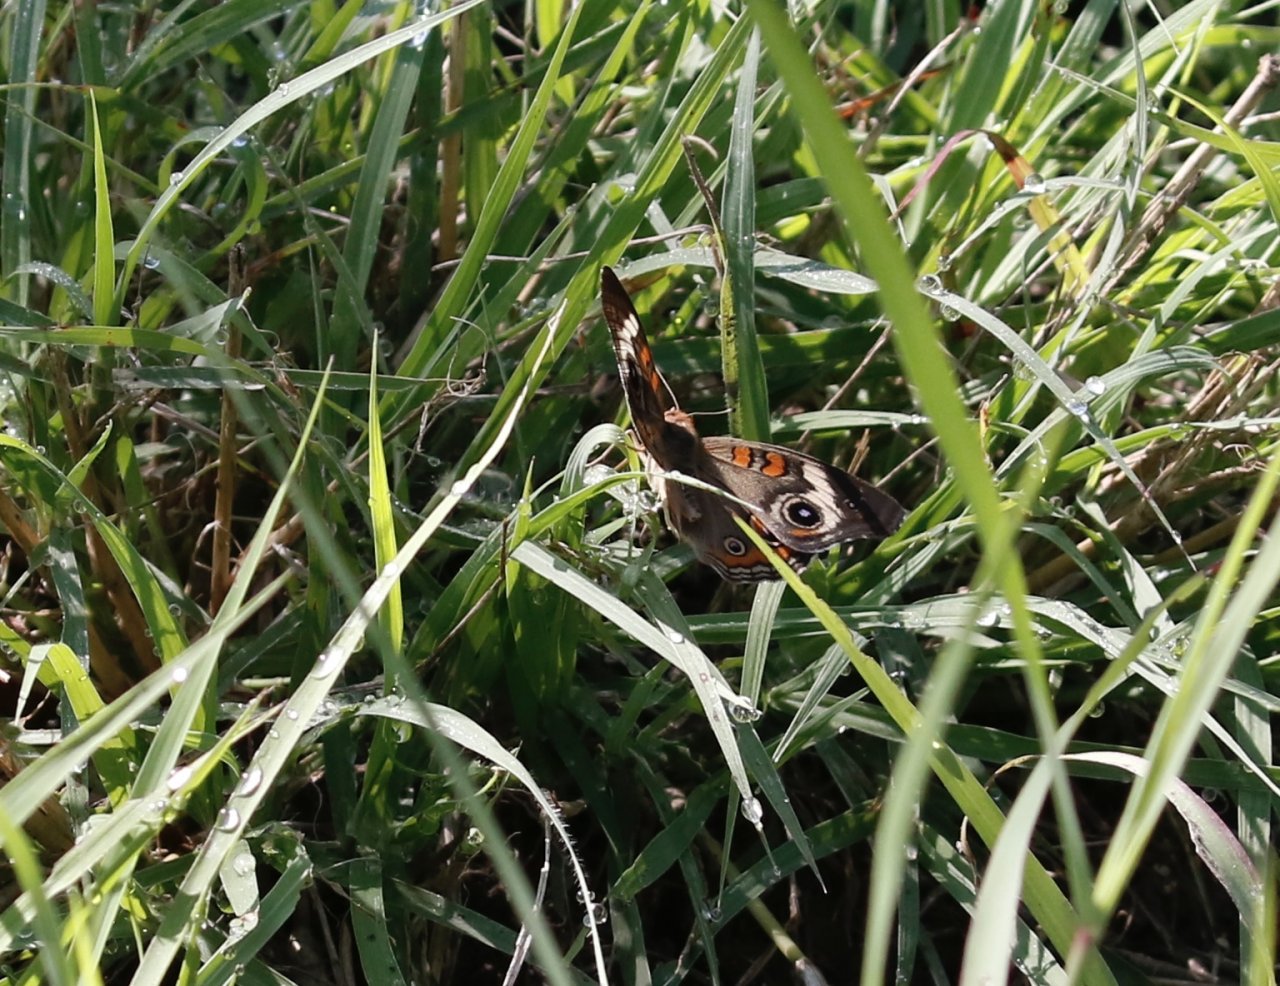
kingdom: Animalia
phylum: Arthropoda
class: Insecta
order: Lepidoptera
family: Nymphalidae
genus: Junonia
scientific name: Junonia coenia
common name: Common Buckeye
